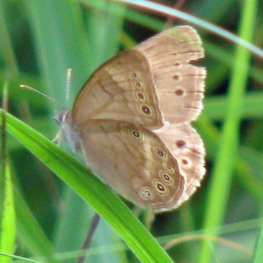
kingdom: Animalia
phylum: Arthropoda
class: Insecta
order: Lepidoptera
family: Nymphalidae
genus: Lethe
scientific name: Lethe eurydice
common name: Eyed Brown
